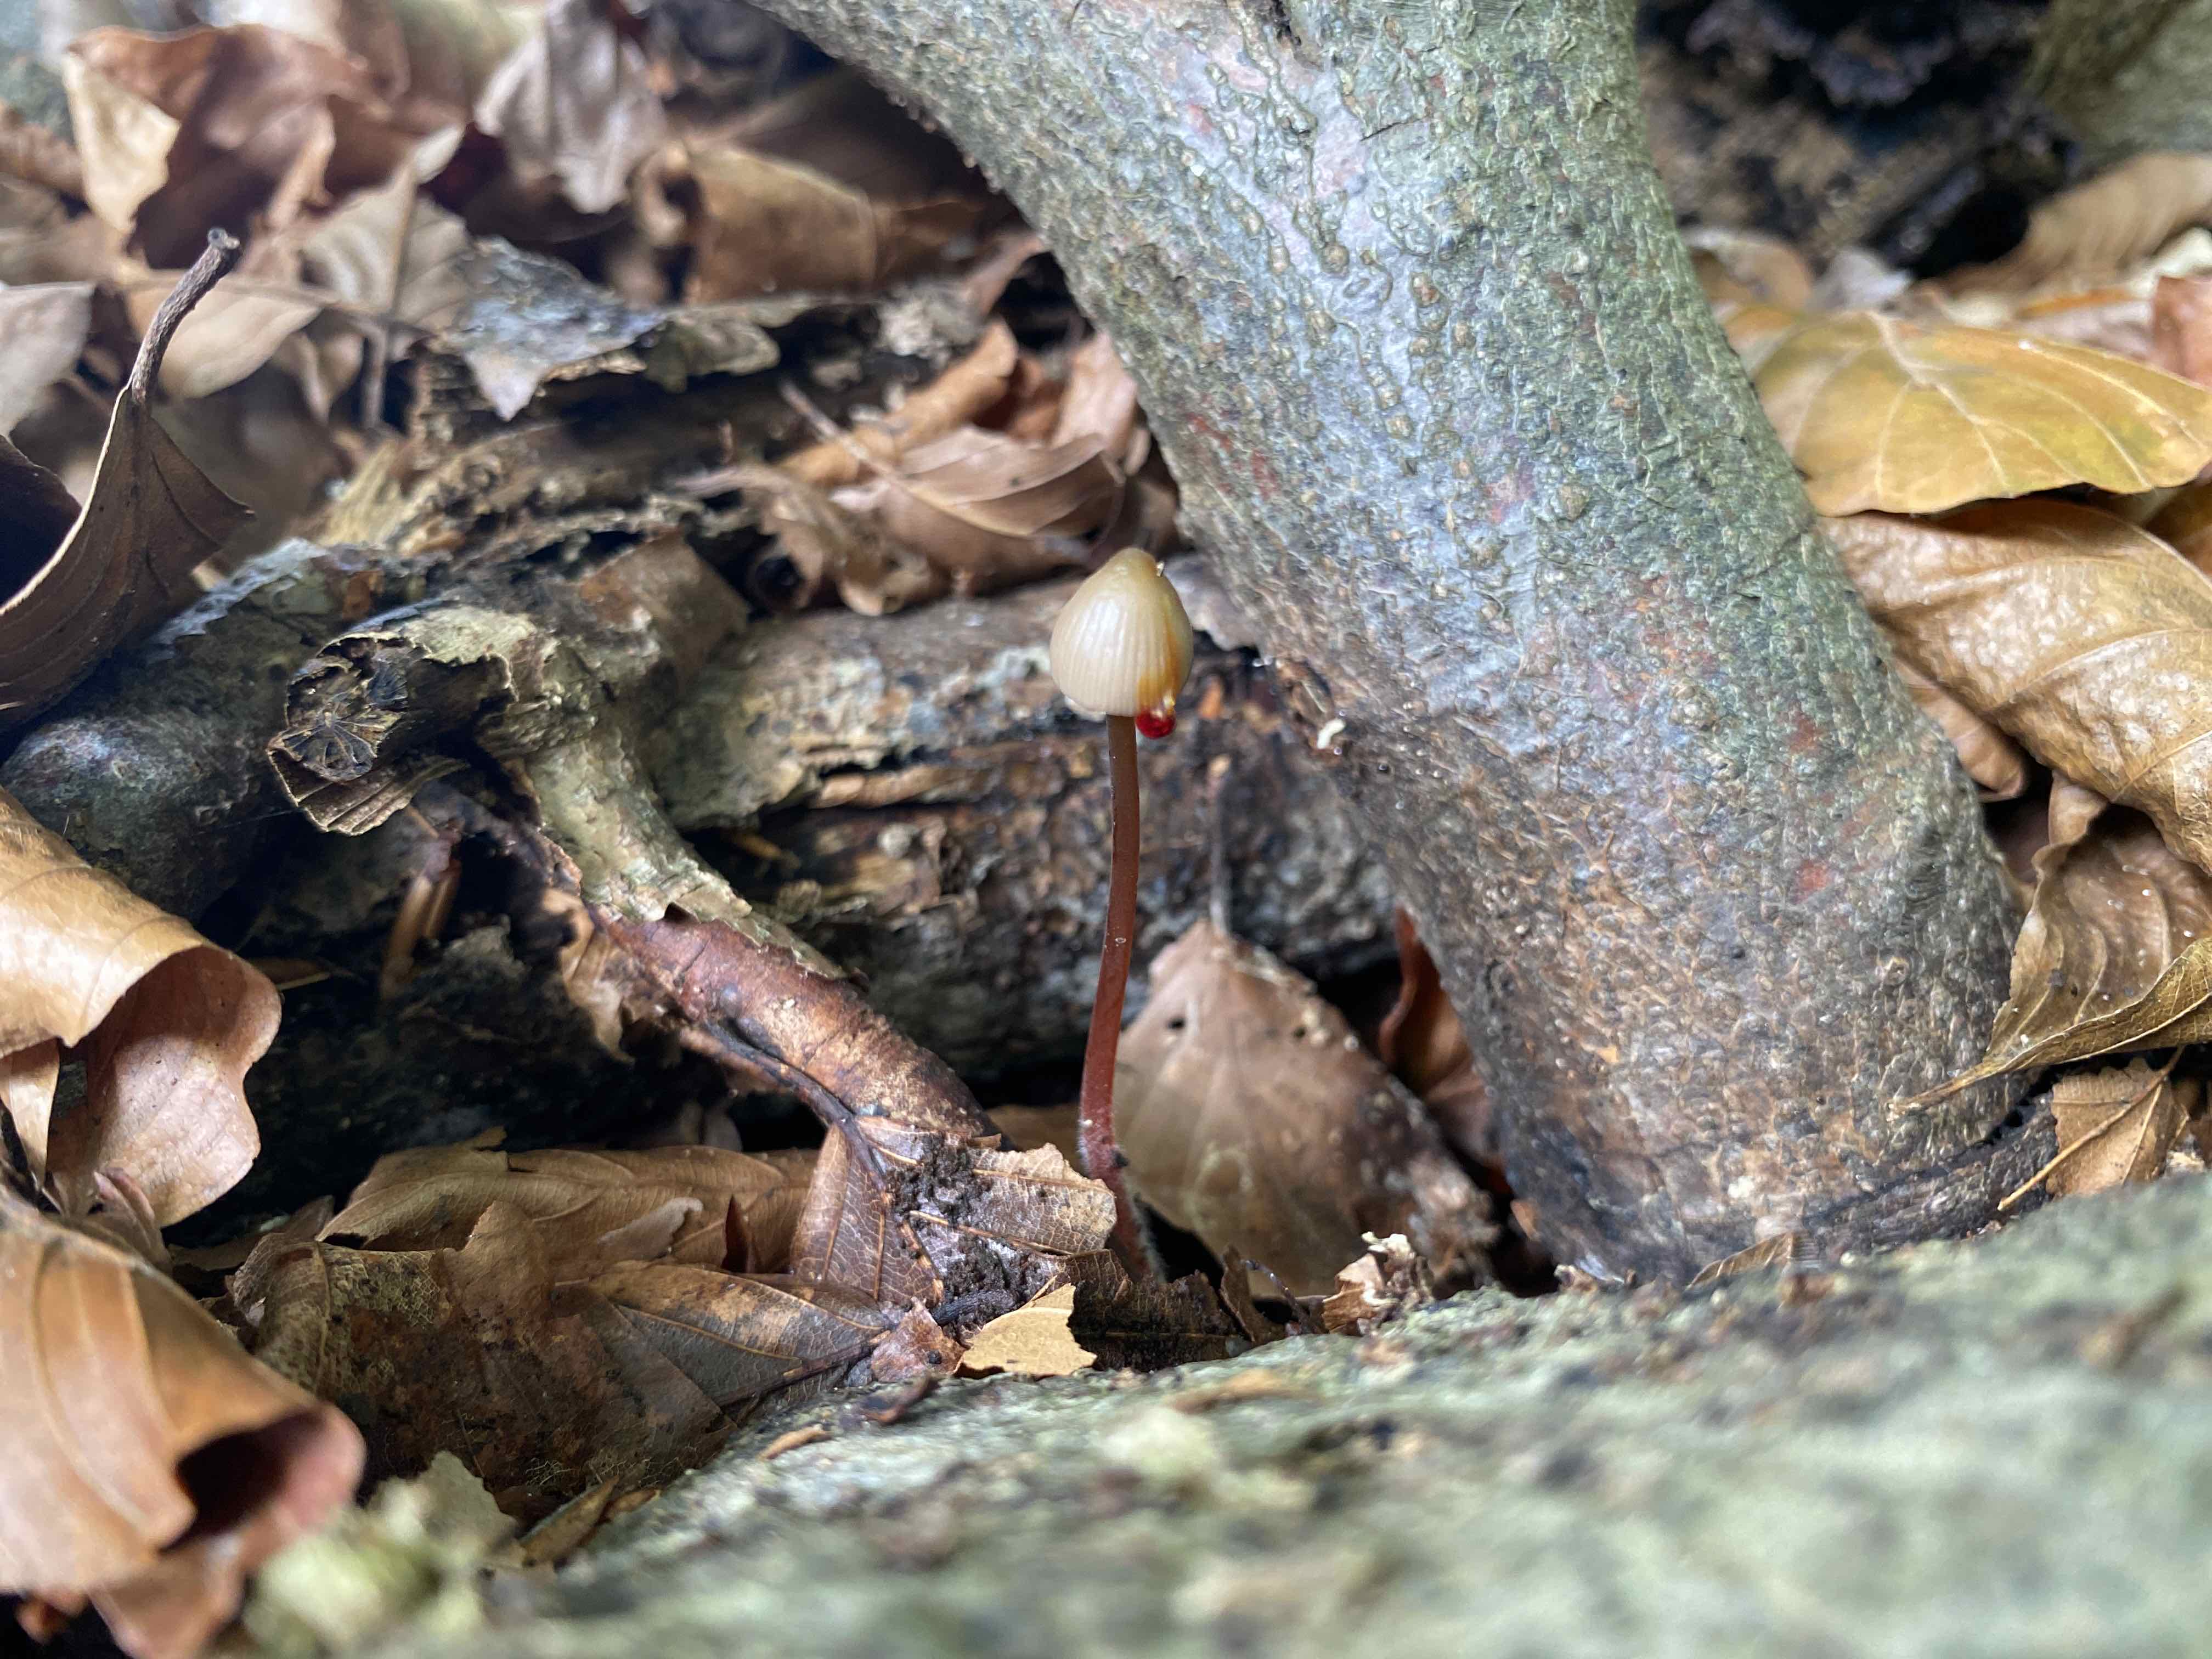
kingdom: Fungi
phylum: Basidiomycota
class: Agaricomycetes
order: Agaricales
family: Mycenaceae
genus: Mycena
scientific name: Mycena crocata
